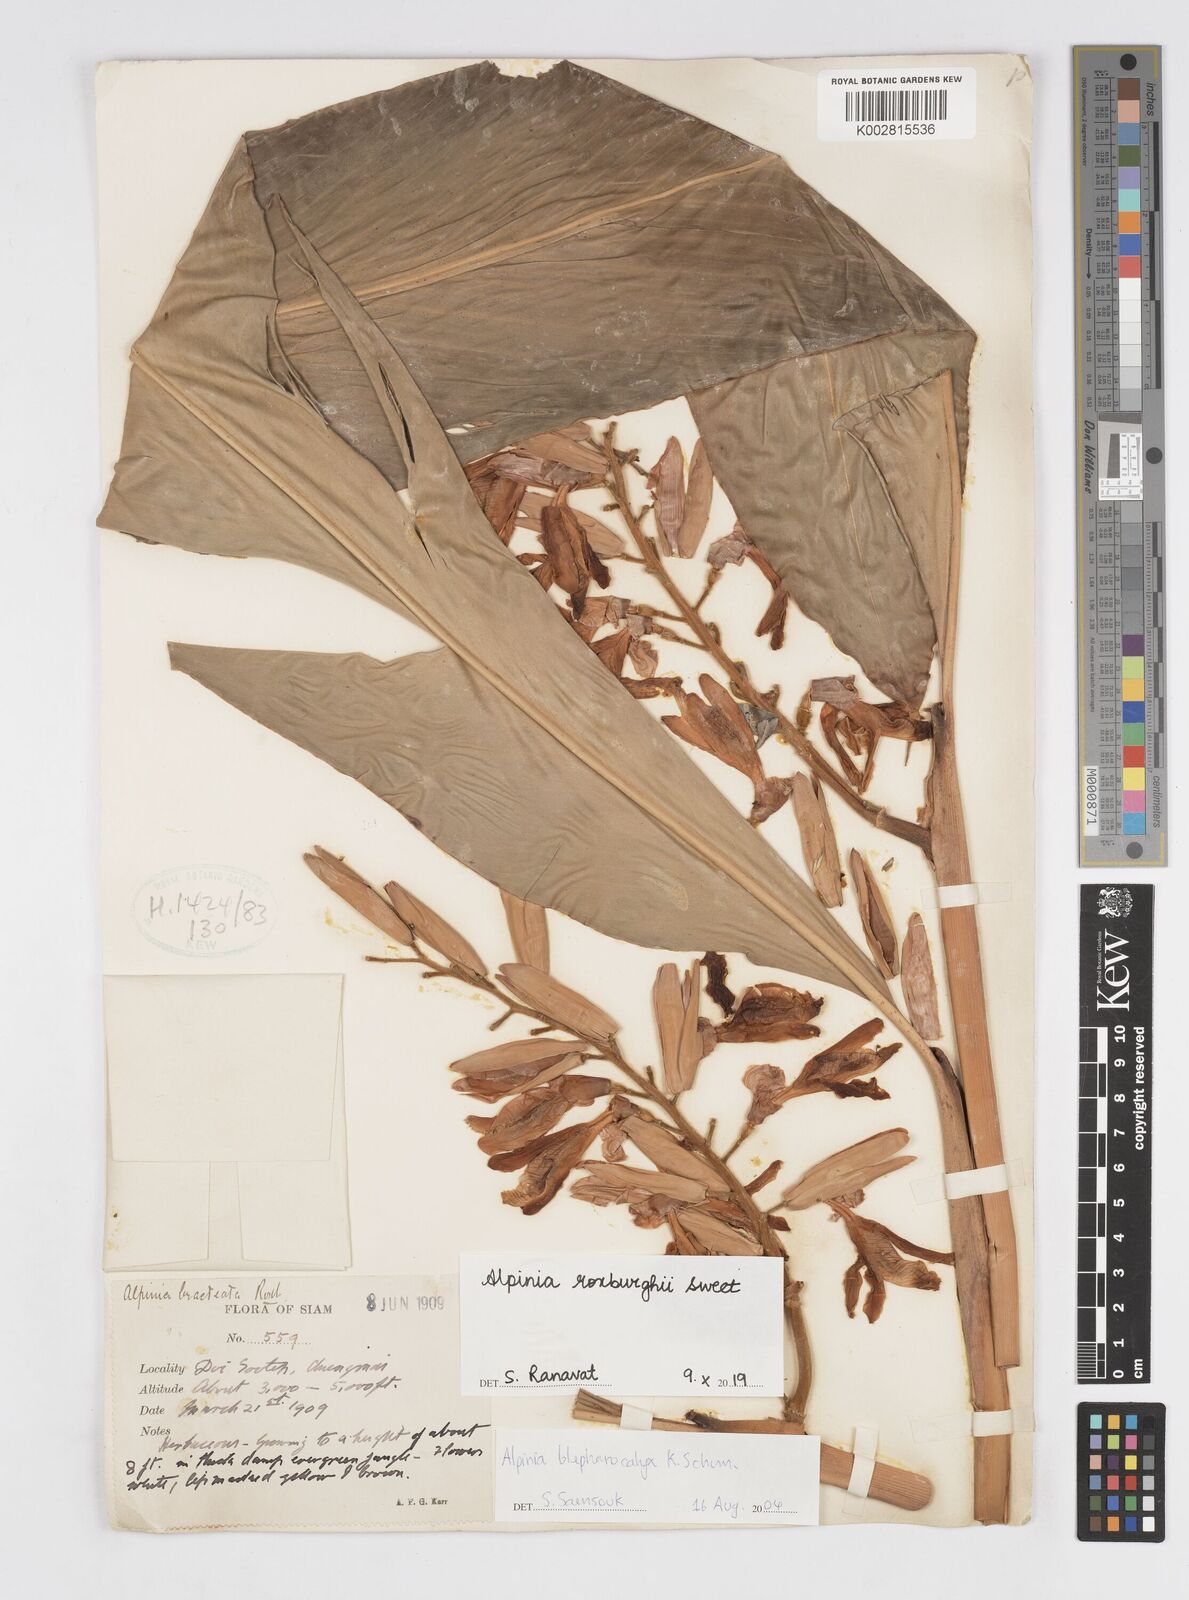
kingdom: Plantae
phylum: Tracheophyta
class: Liliopsida
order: Zingiberales
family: Zingiberaceae
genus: Alpinia
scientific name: Alpinia roxburghii
